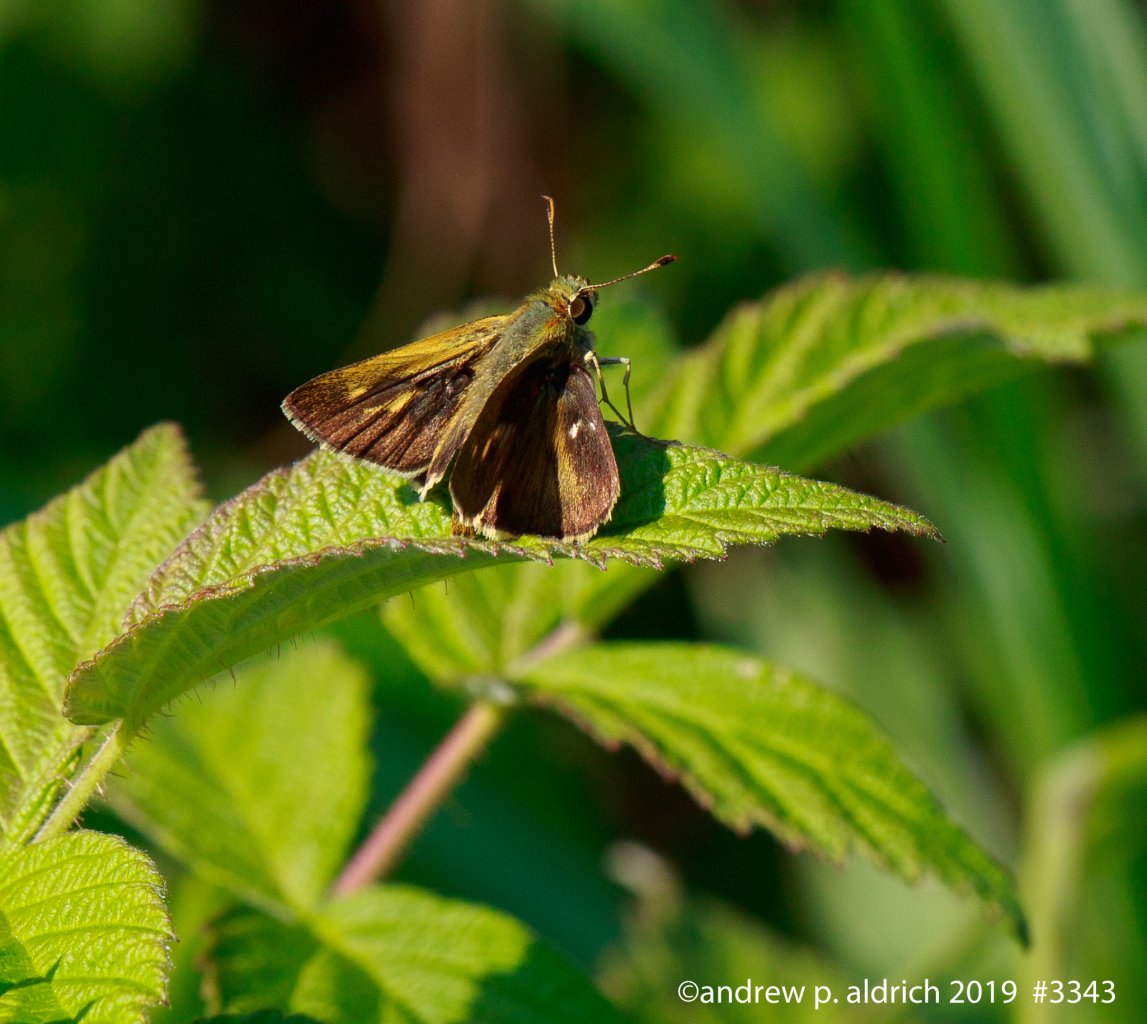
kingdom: Animalia
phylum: Arthropoda
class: Insecta
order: Lepidoptera
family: Hesperiidae
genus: Polites
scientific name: Polites egeremet
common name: Northern Broken-Dash
